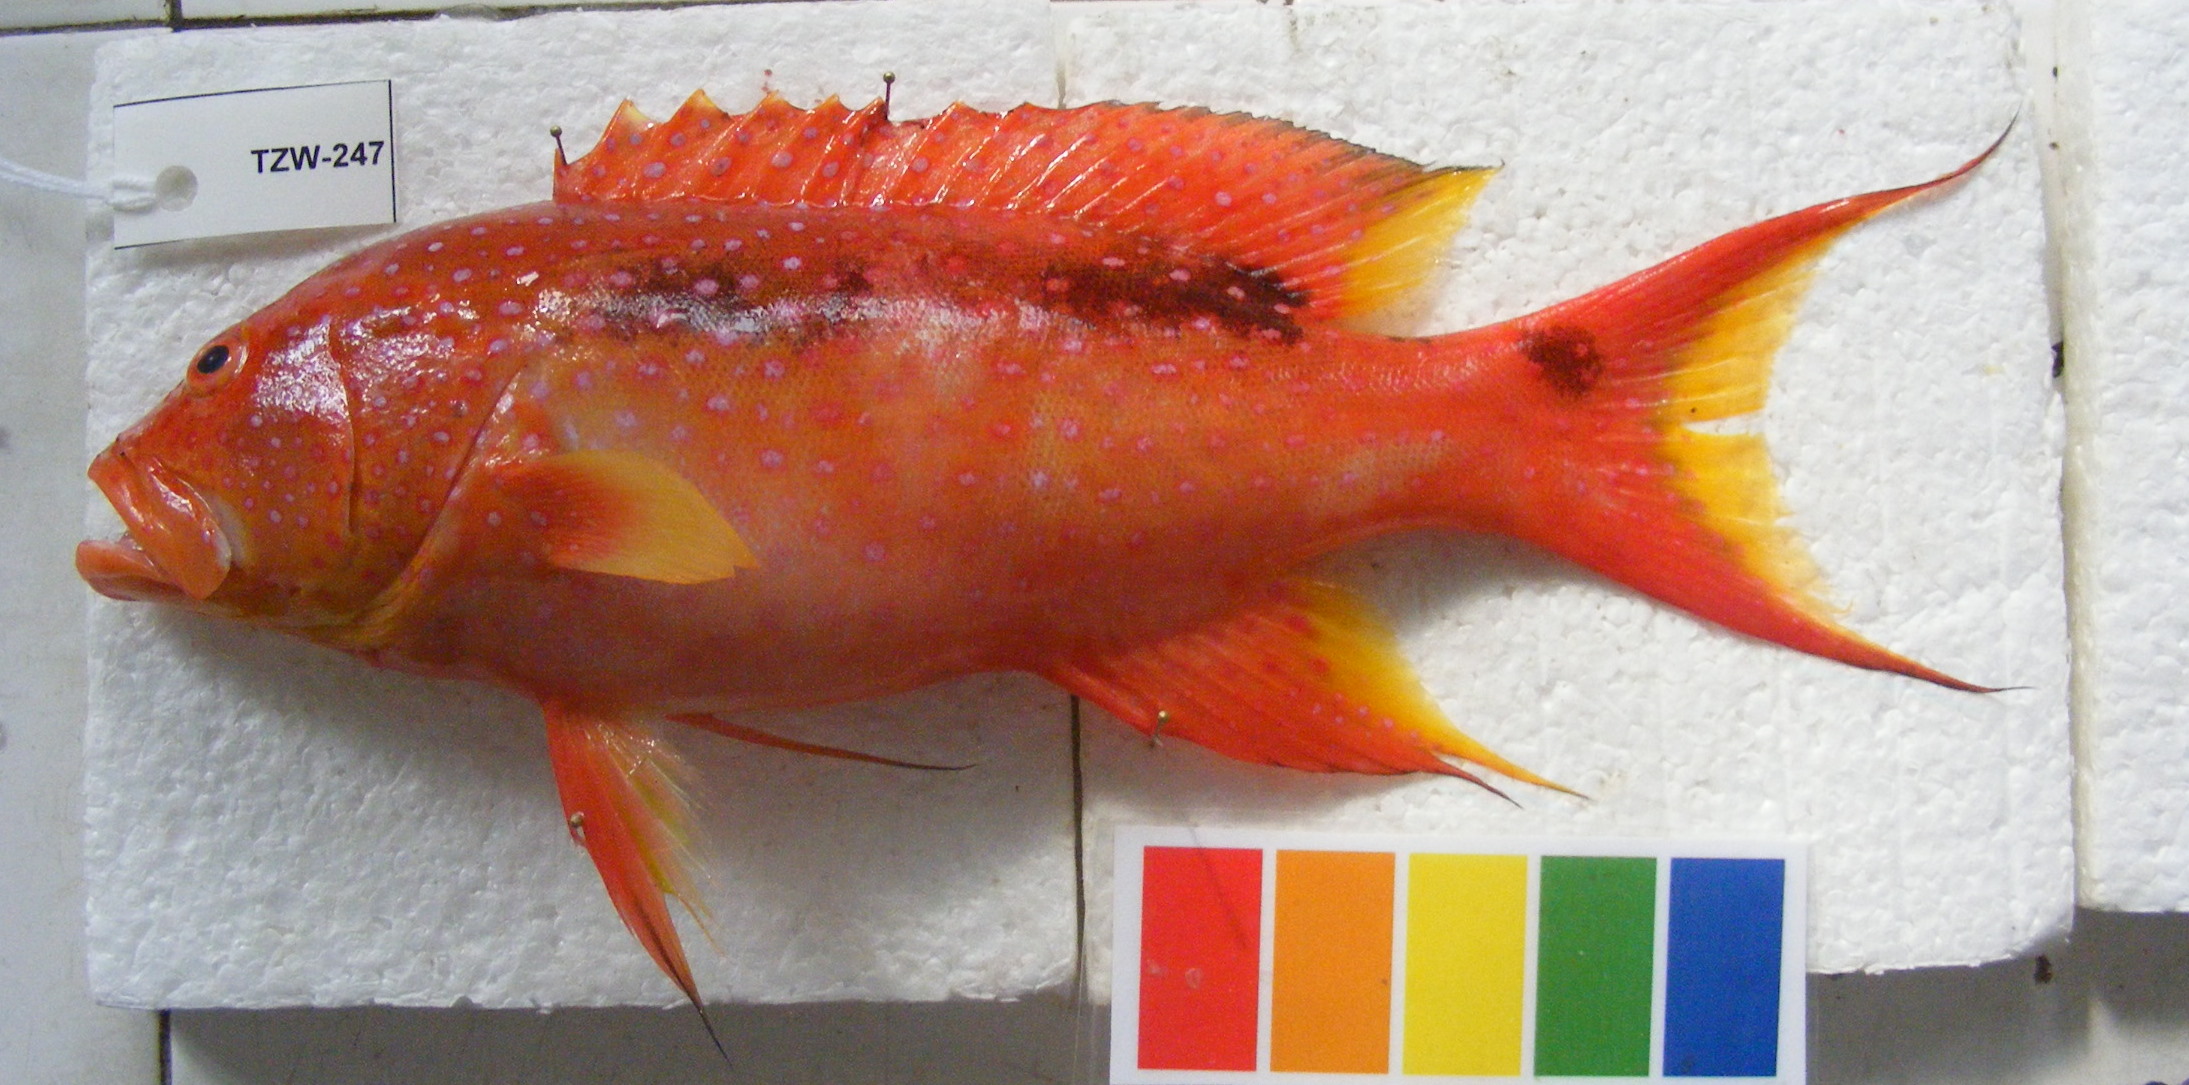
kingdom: Animalia
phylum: Chordata
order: Perciformes
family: Serranidae
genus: Variola
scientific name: Variola louti
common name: Yellow-edged lyretail
